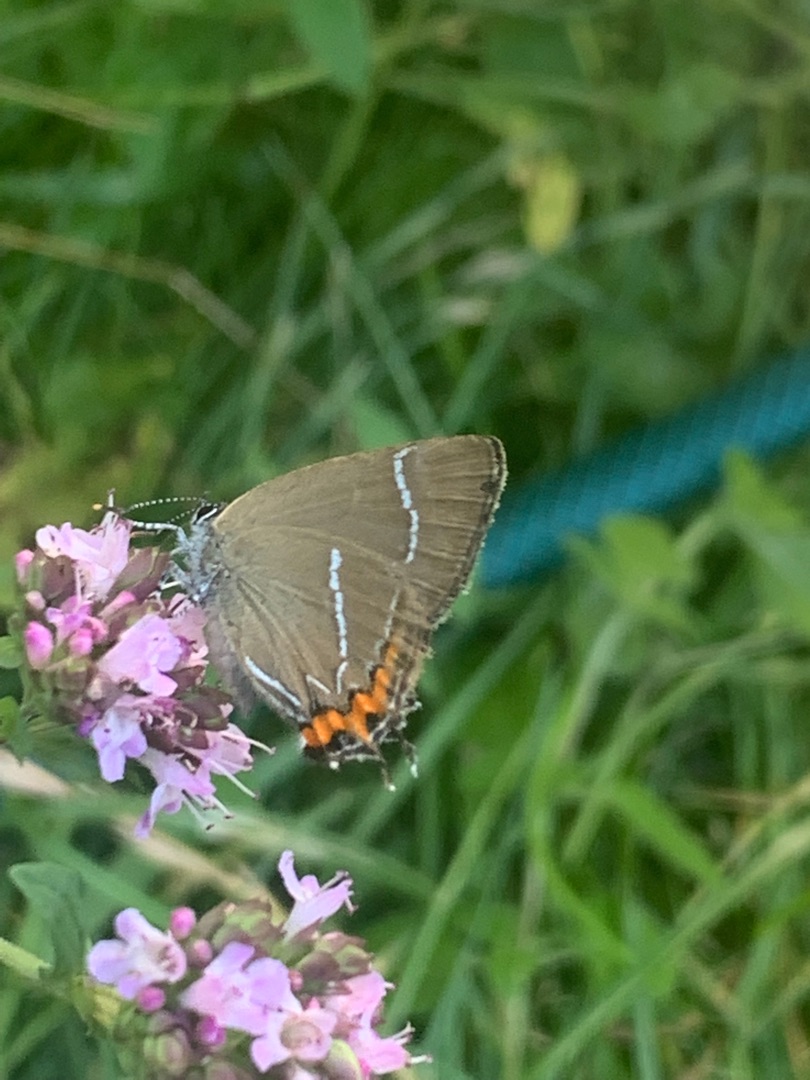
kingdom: Animalia
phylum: Arthropoda
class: Insecta
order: Lepidoptera
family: Lycaenidae
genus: Satyrium
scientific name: Satyrium w-album
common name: Det hvide W
